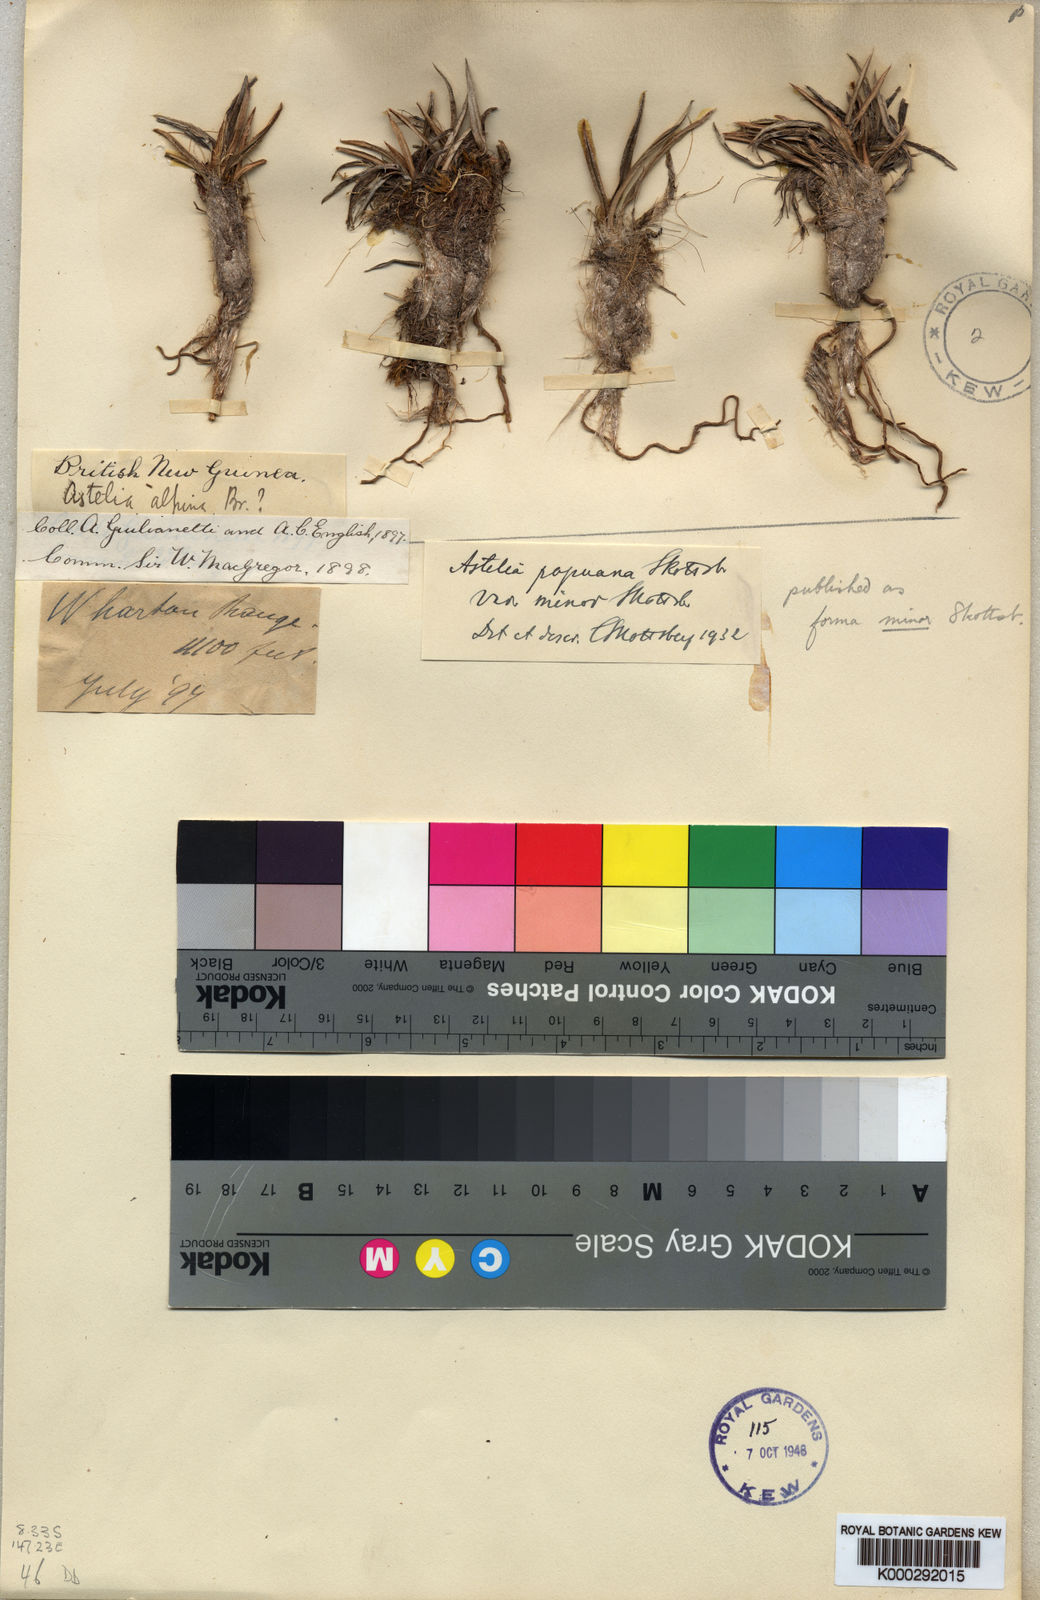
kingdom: Plantae
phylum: Tracheophyta
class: Liliopsida
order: Asparagales
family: Asteliaceae
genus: Astelia
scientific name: Astelia papuana
